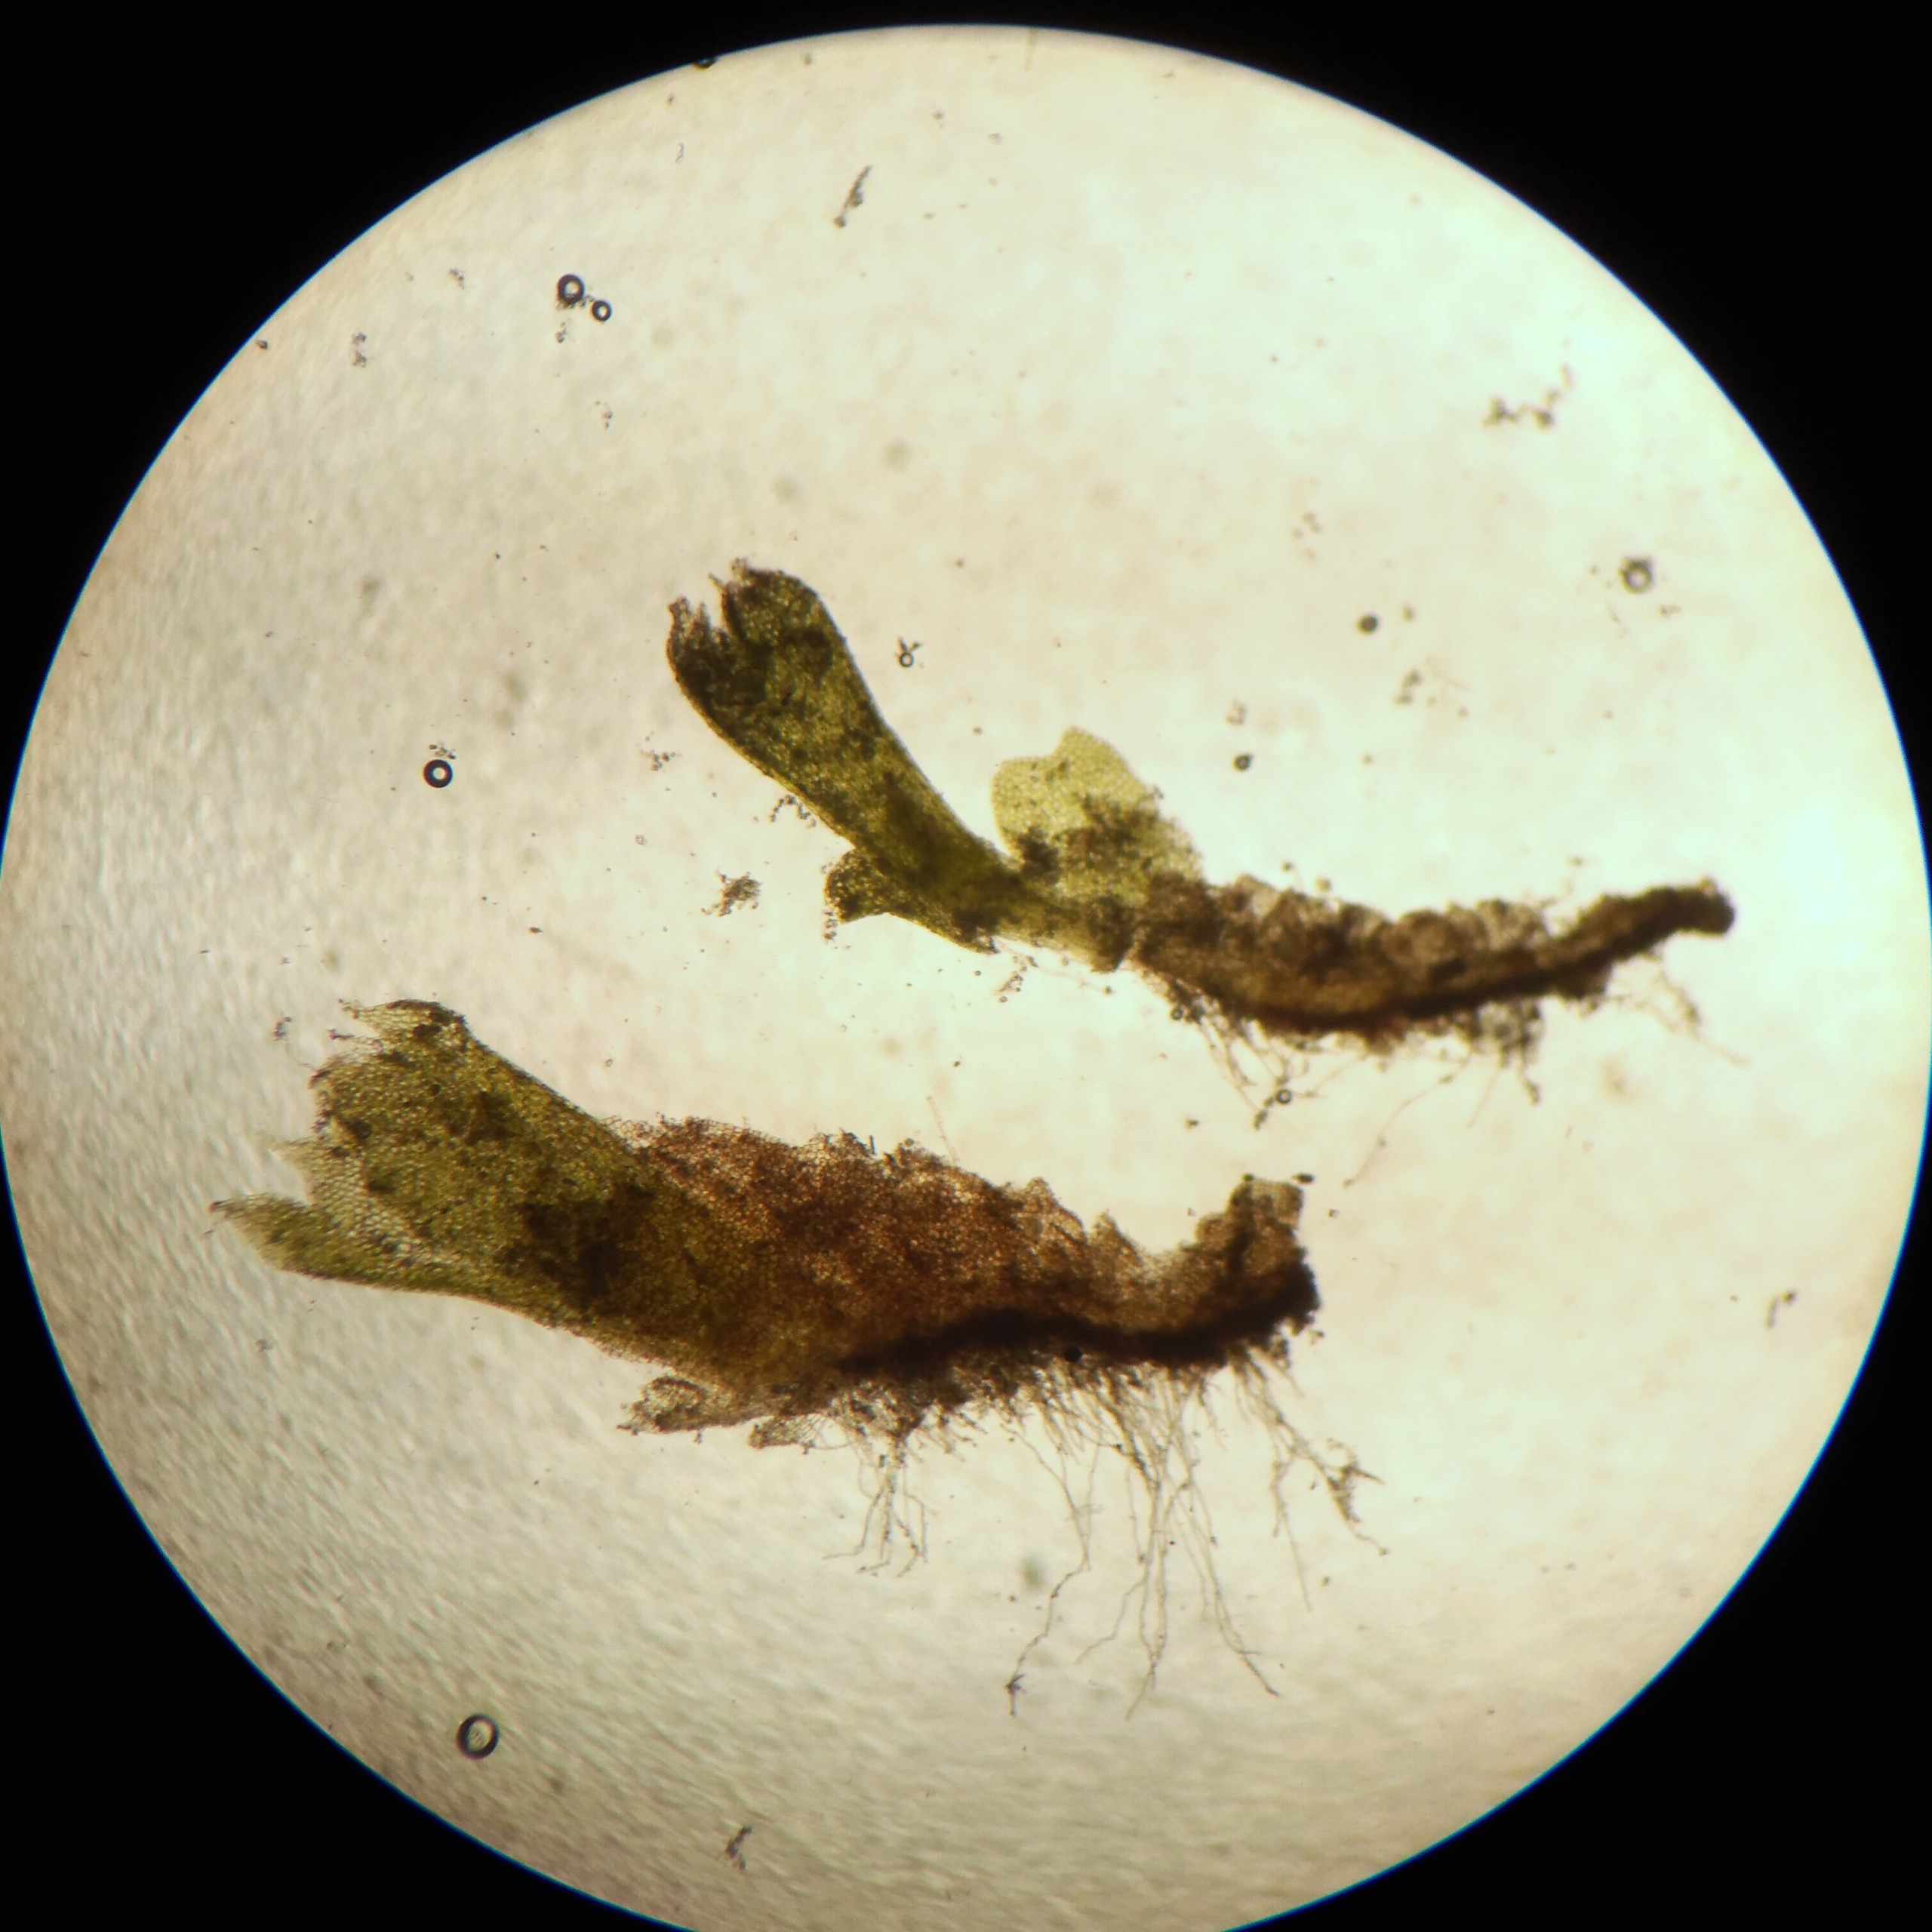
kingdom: Plantae
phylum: Marchantiophyta
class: Jungermanniopsida
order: Jungermanniales
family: Jungermanniaceae
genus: Mesoptychia
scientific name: Mesoptychia badensis
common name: Liden rørbæger
